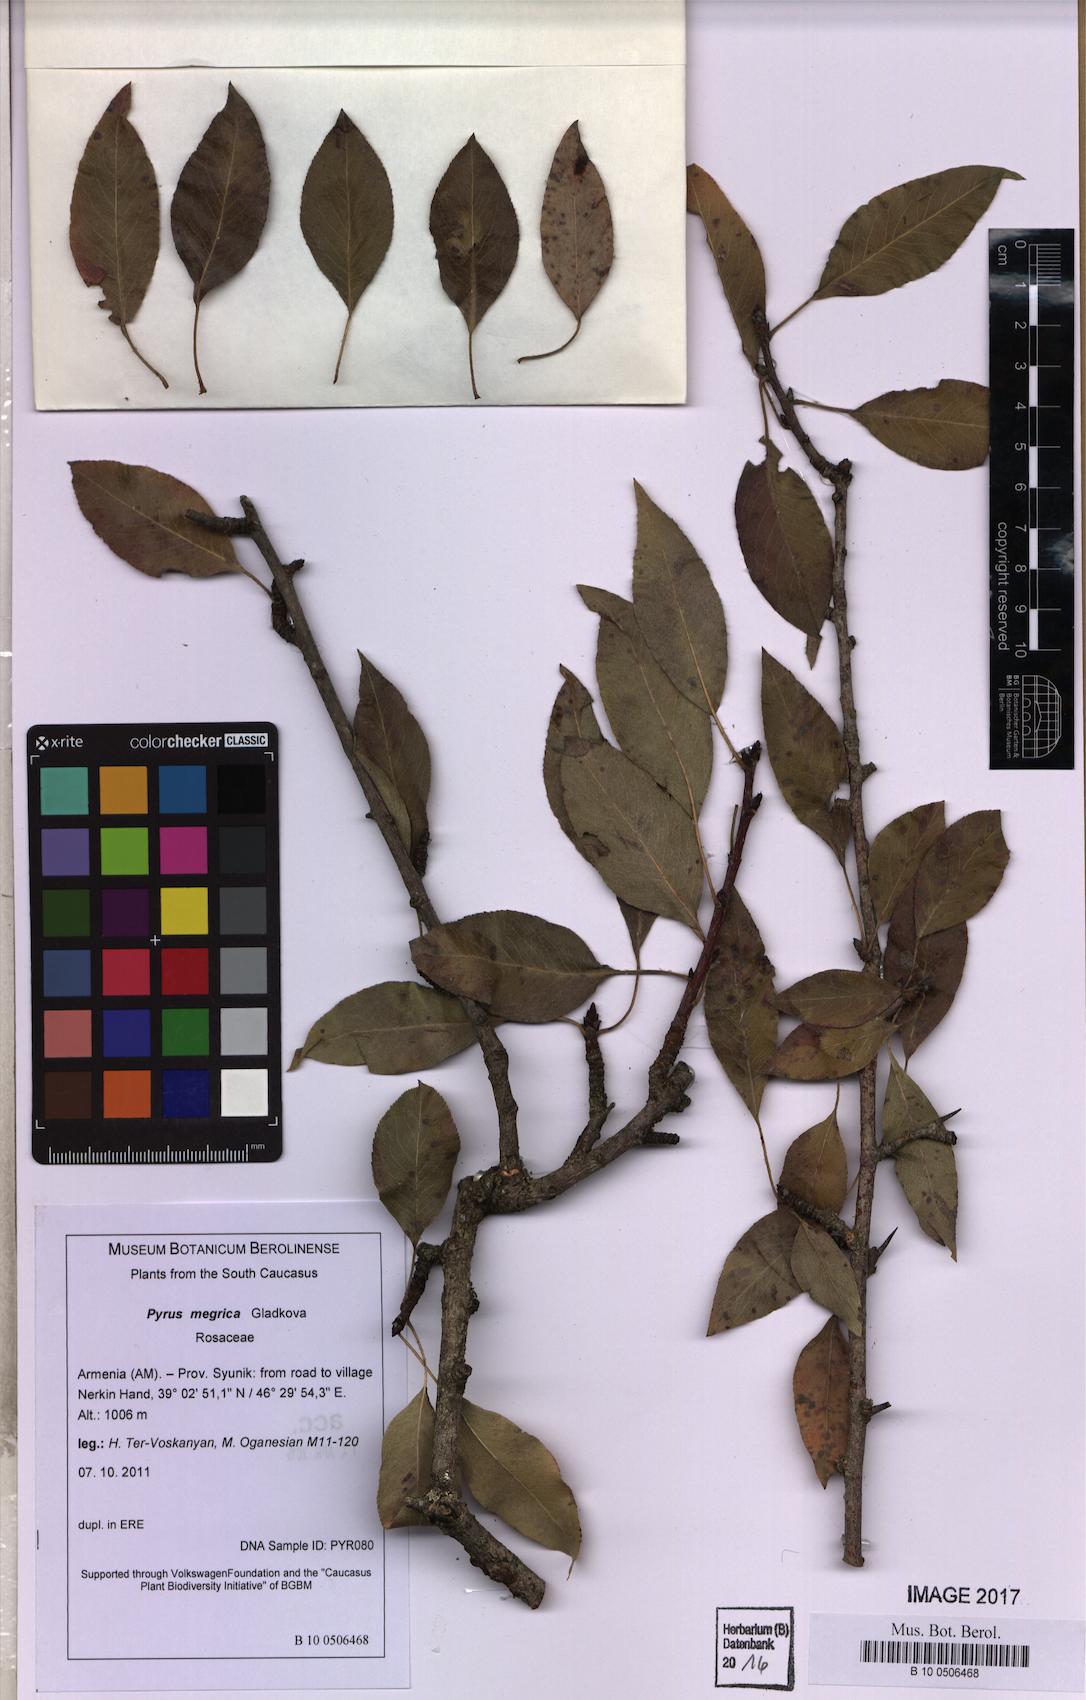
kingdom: Plantae
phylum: Tracheophyta
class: Magnoliopsida
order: Rosales
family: Rosaceae
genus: Pyrus
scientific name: Pyrus megrica
